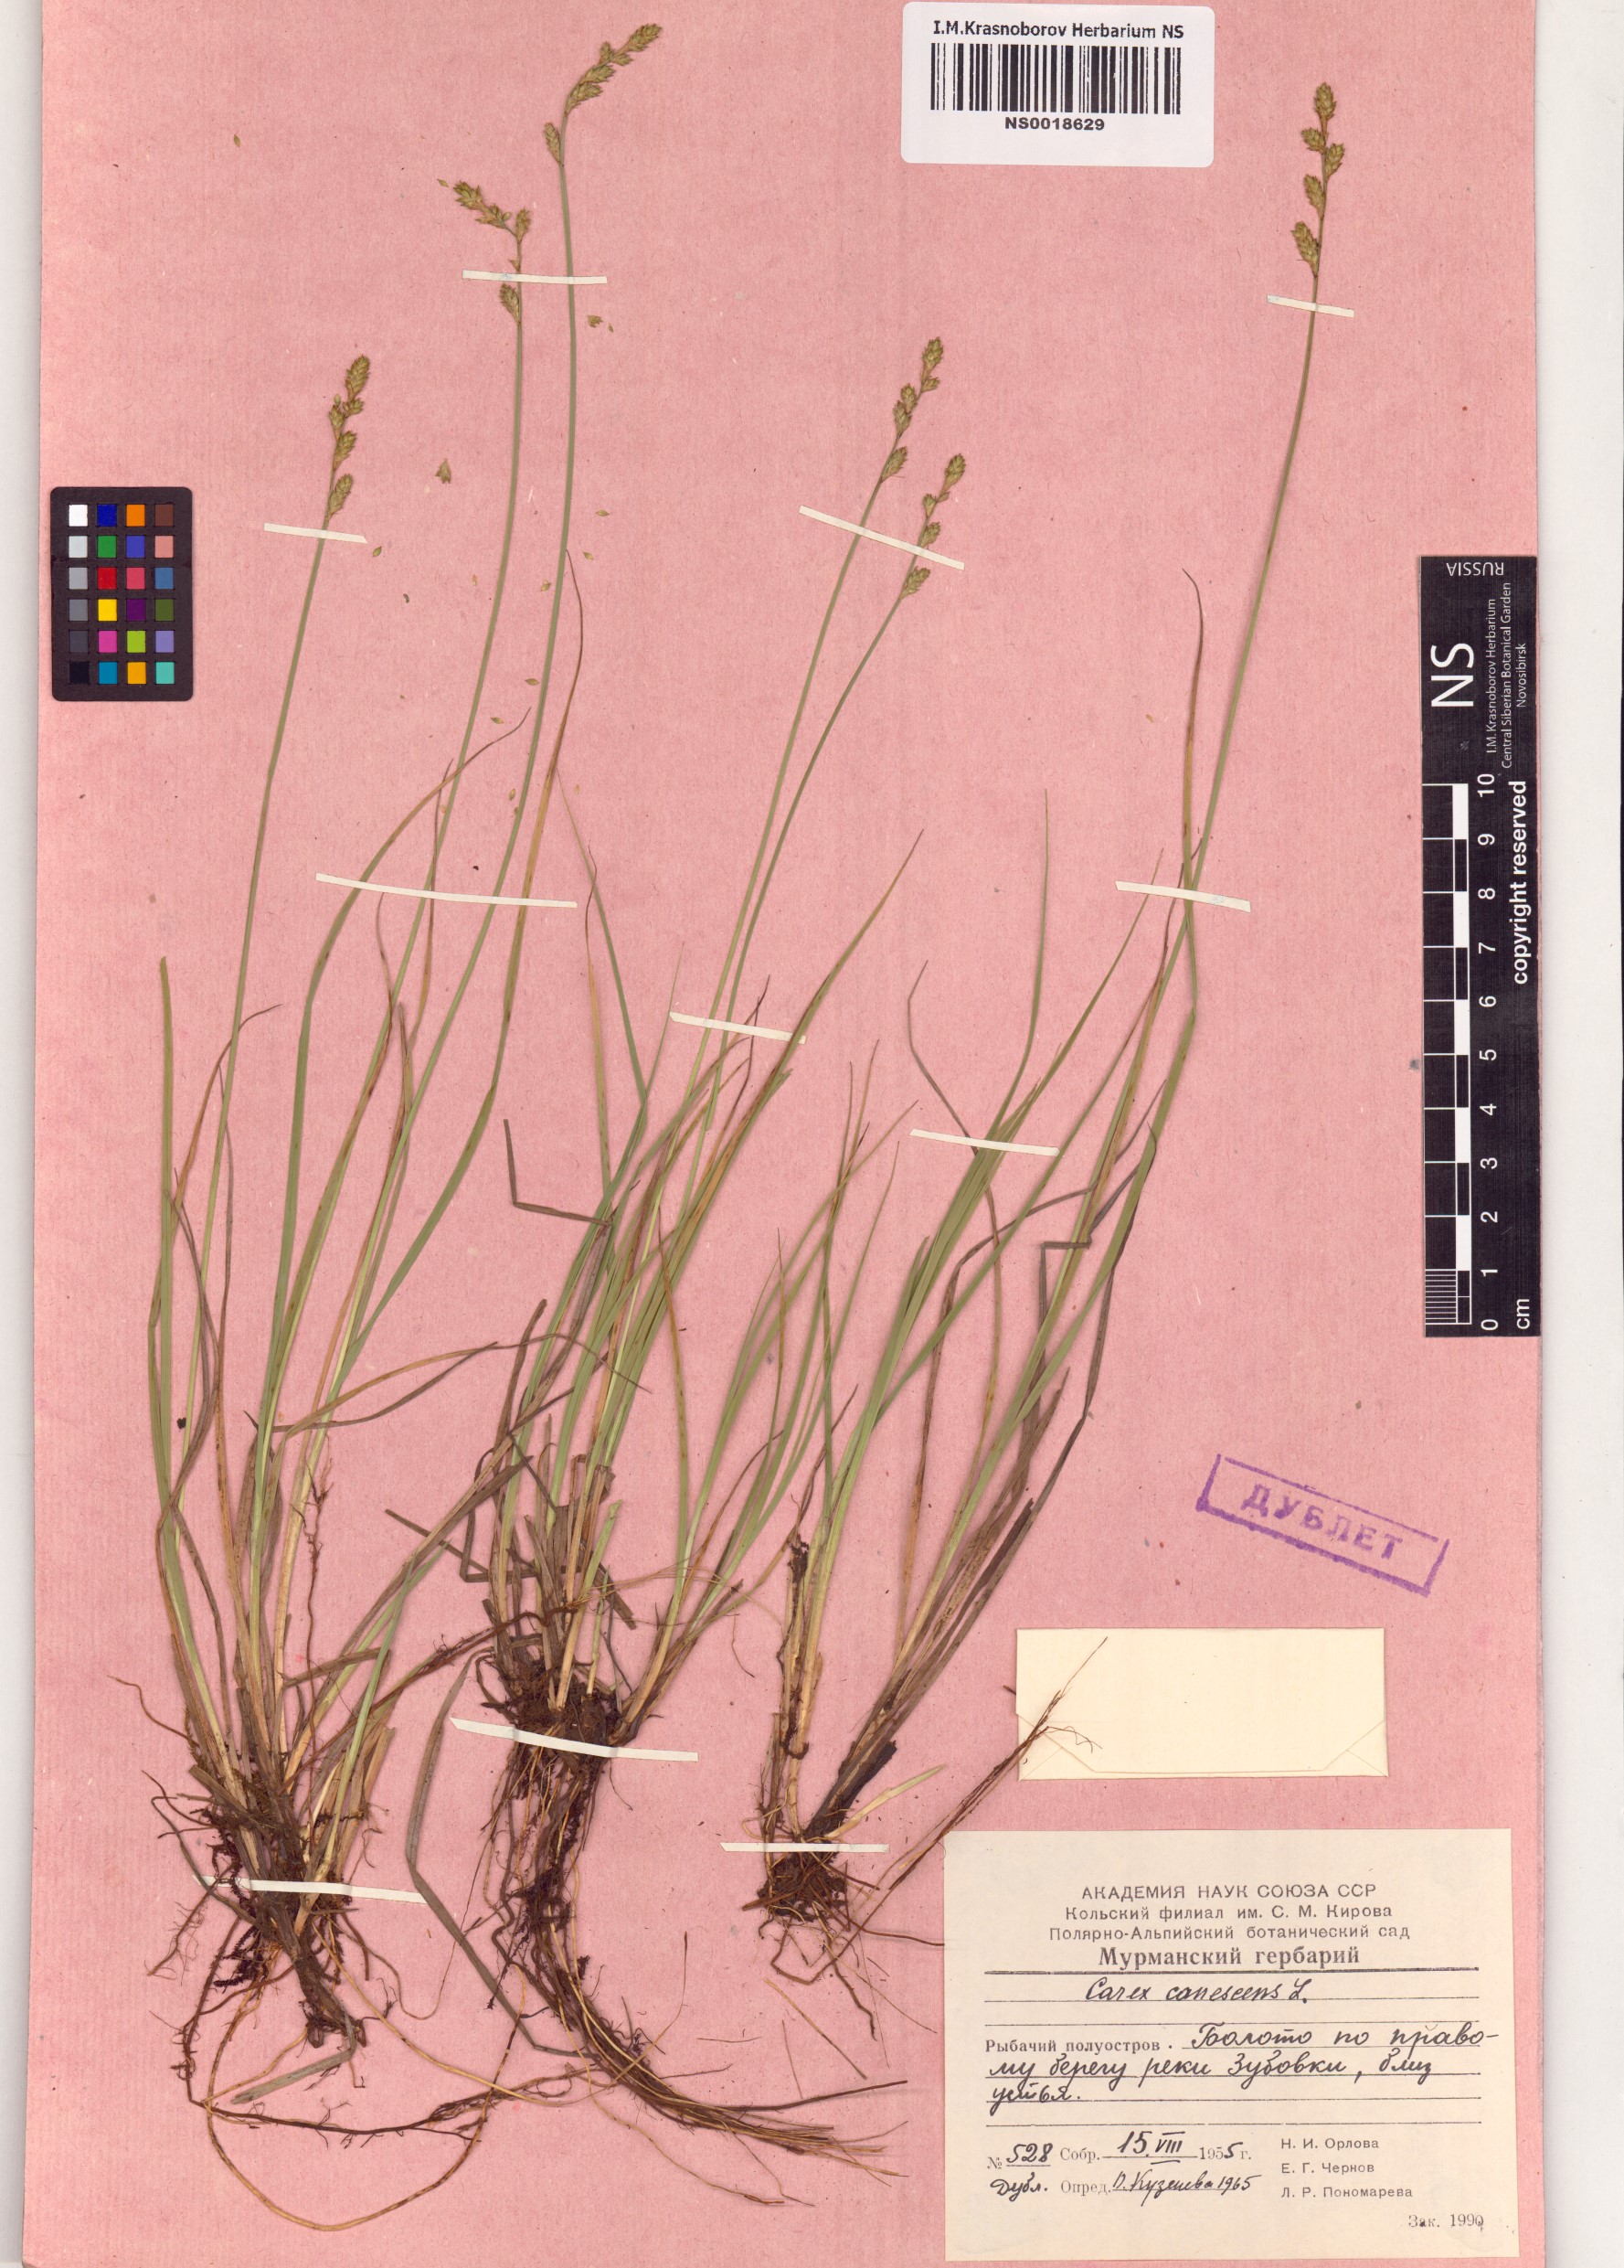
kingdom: Plantae
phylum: Tracheophyta
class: Liliopsida
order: Poales
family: Cyperaceae
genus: Carex
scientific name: Carex canescens
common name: White sedge
